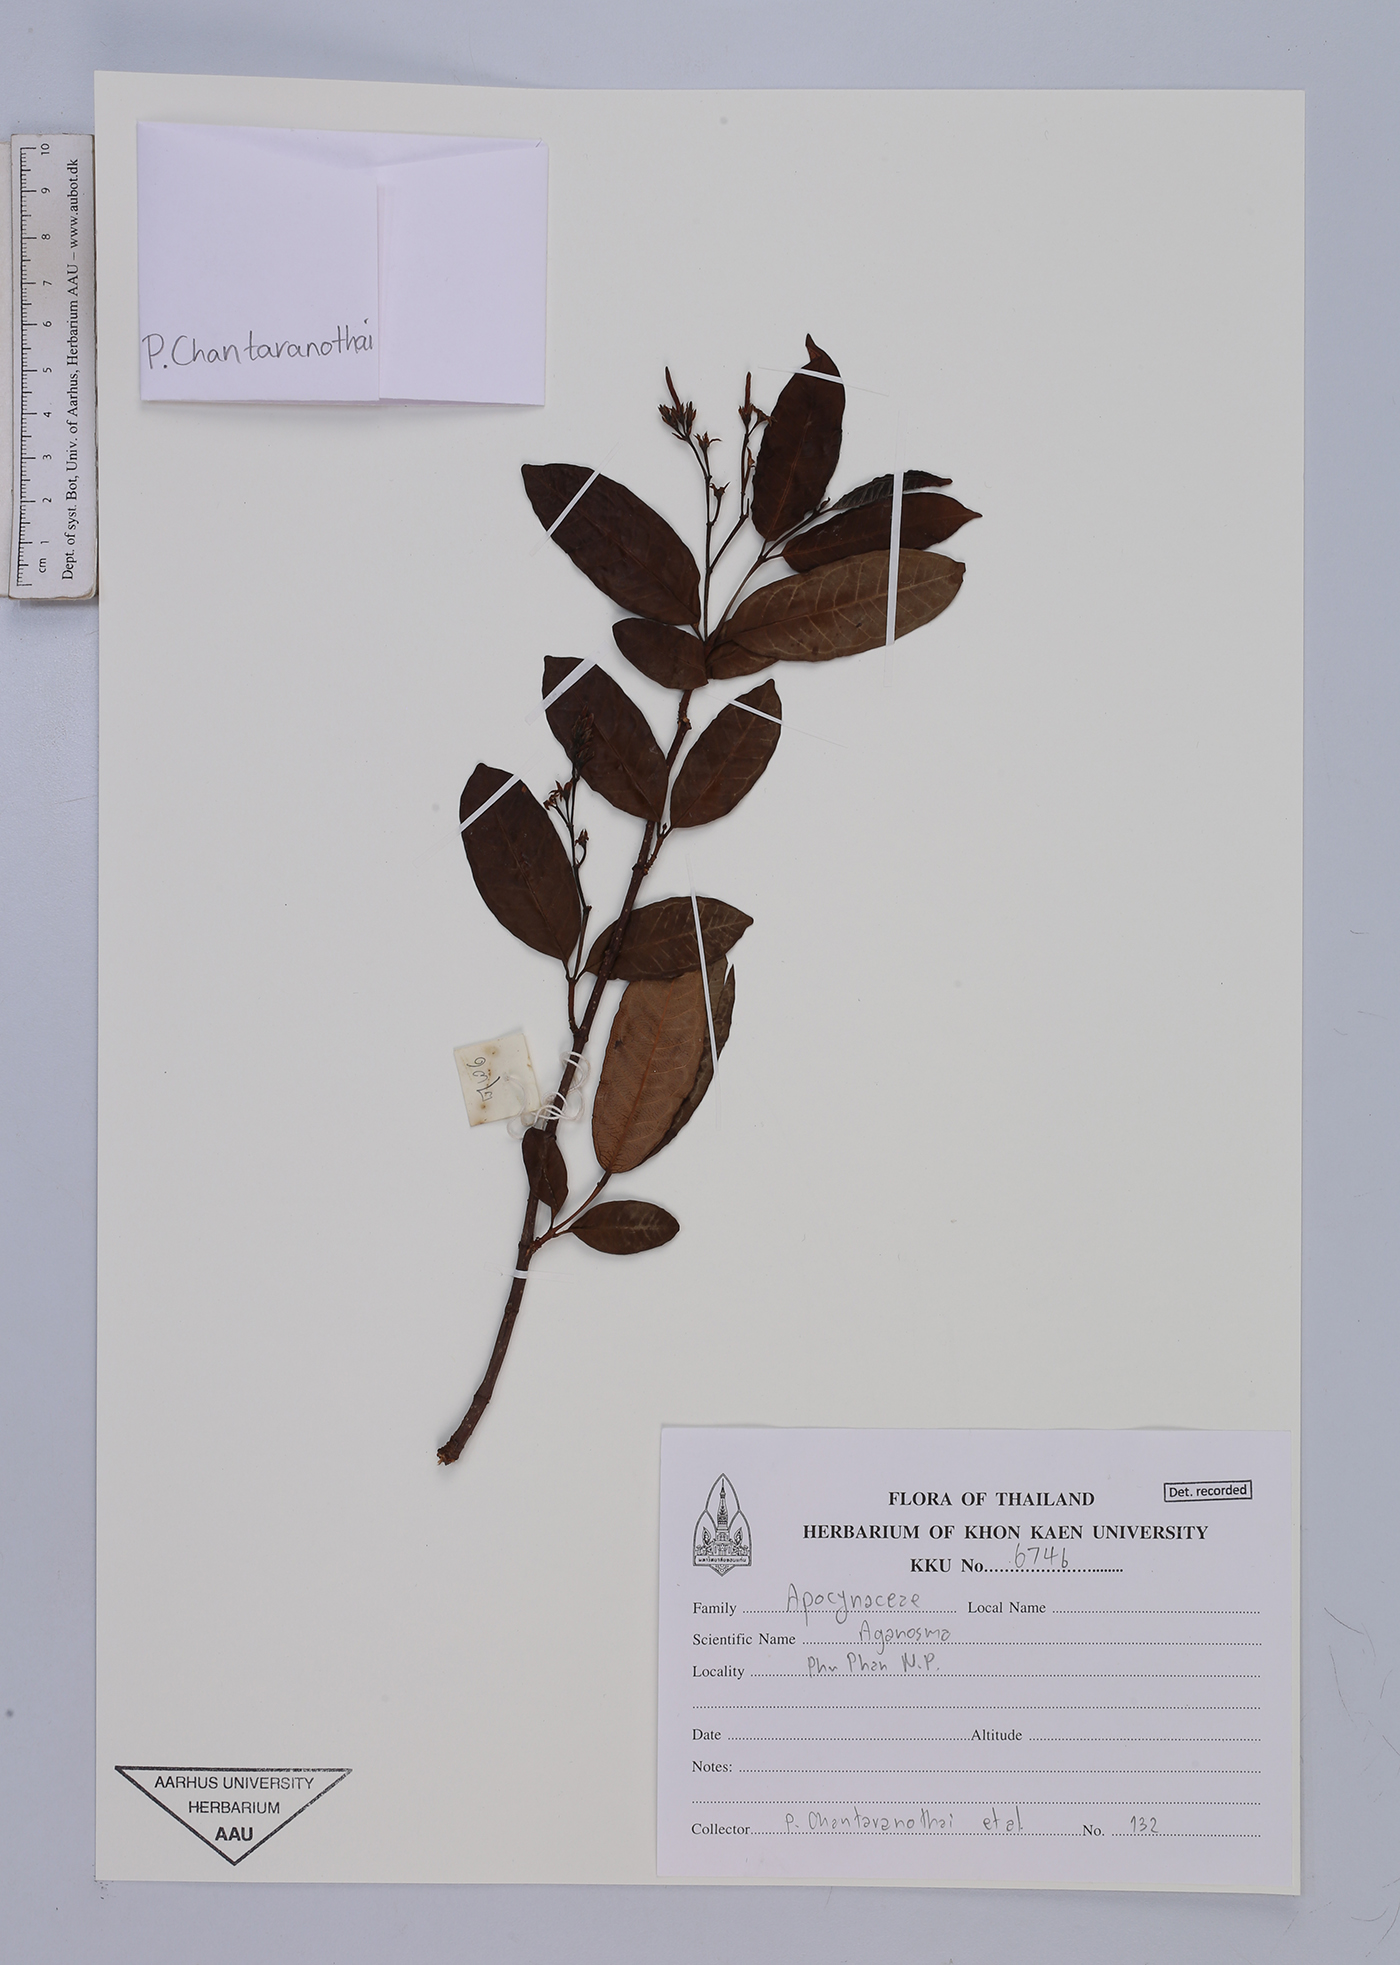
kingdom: Plantae
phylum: Tracheophyta
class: Magnoliopsida
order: Gentianales
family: Apocynaceae
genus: Aganosma
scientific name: Aganosma
